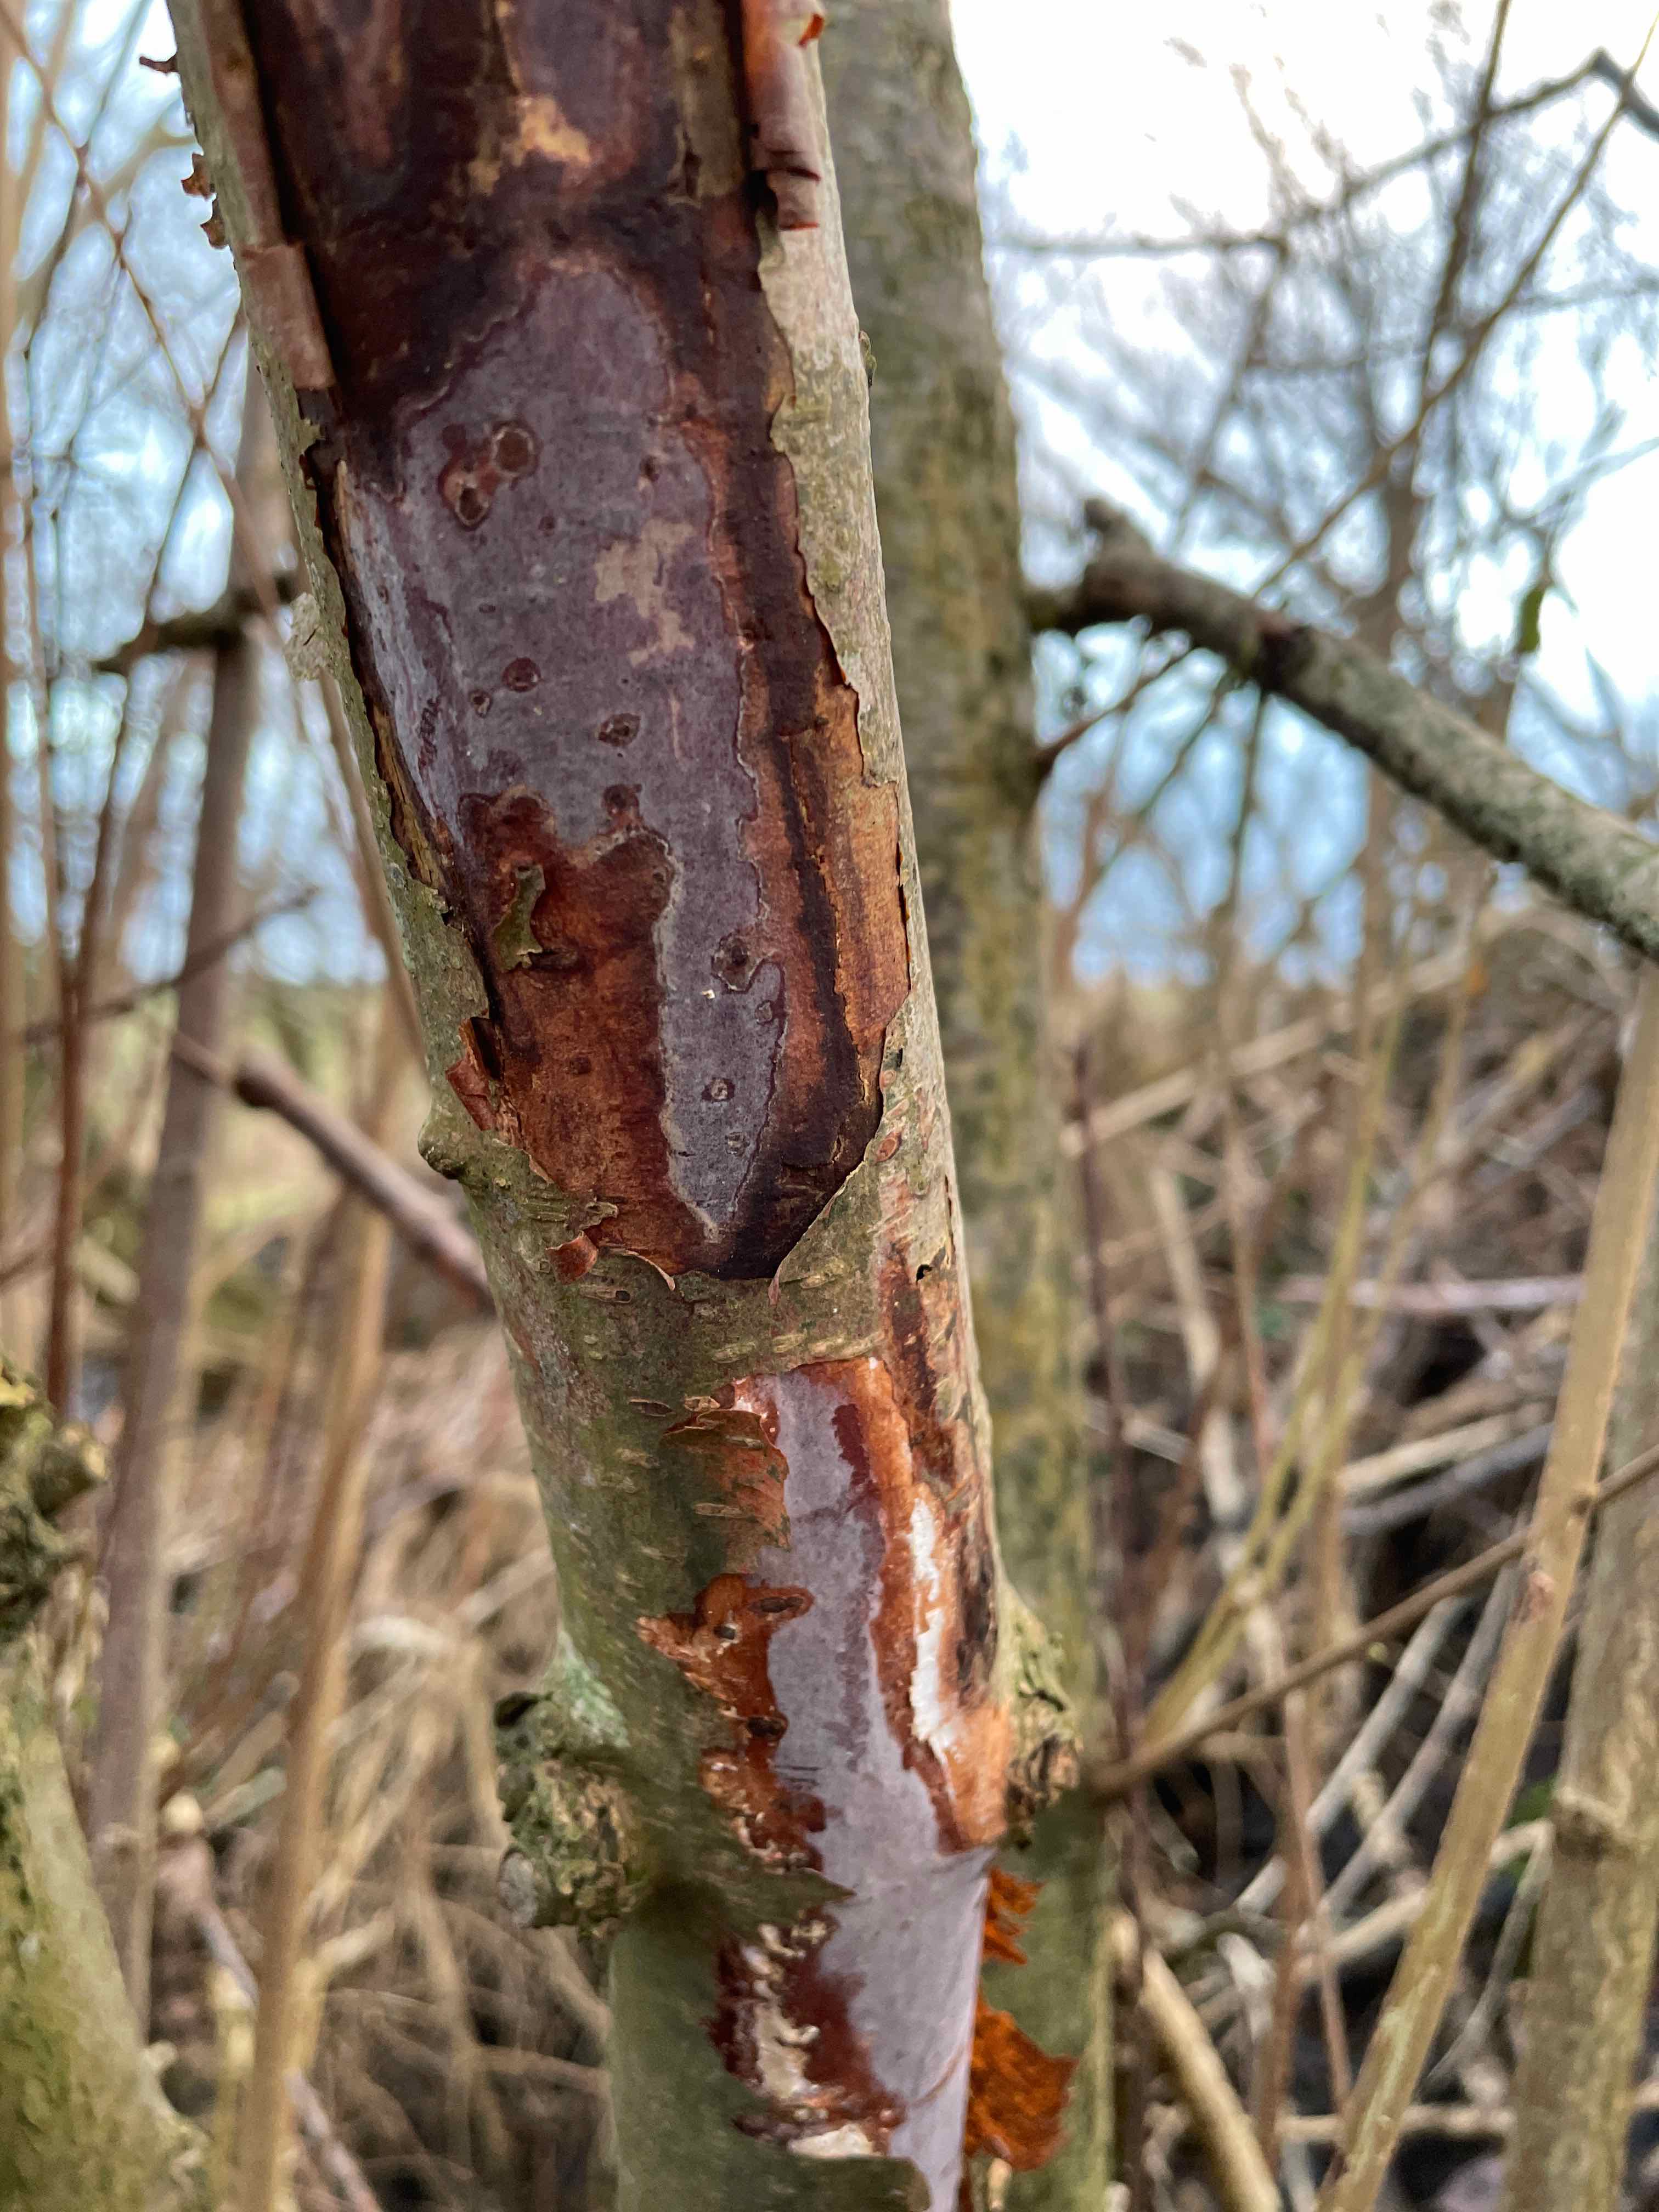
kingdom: Fungi
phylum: Basidiomycota
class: Agaricomycetes
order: Corticiales
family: Vuilleminiaceae
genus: Vuilleminia
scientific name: Vuilleminia coryli
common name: hassel-barksprænger
